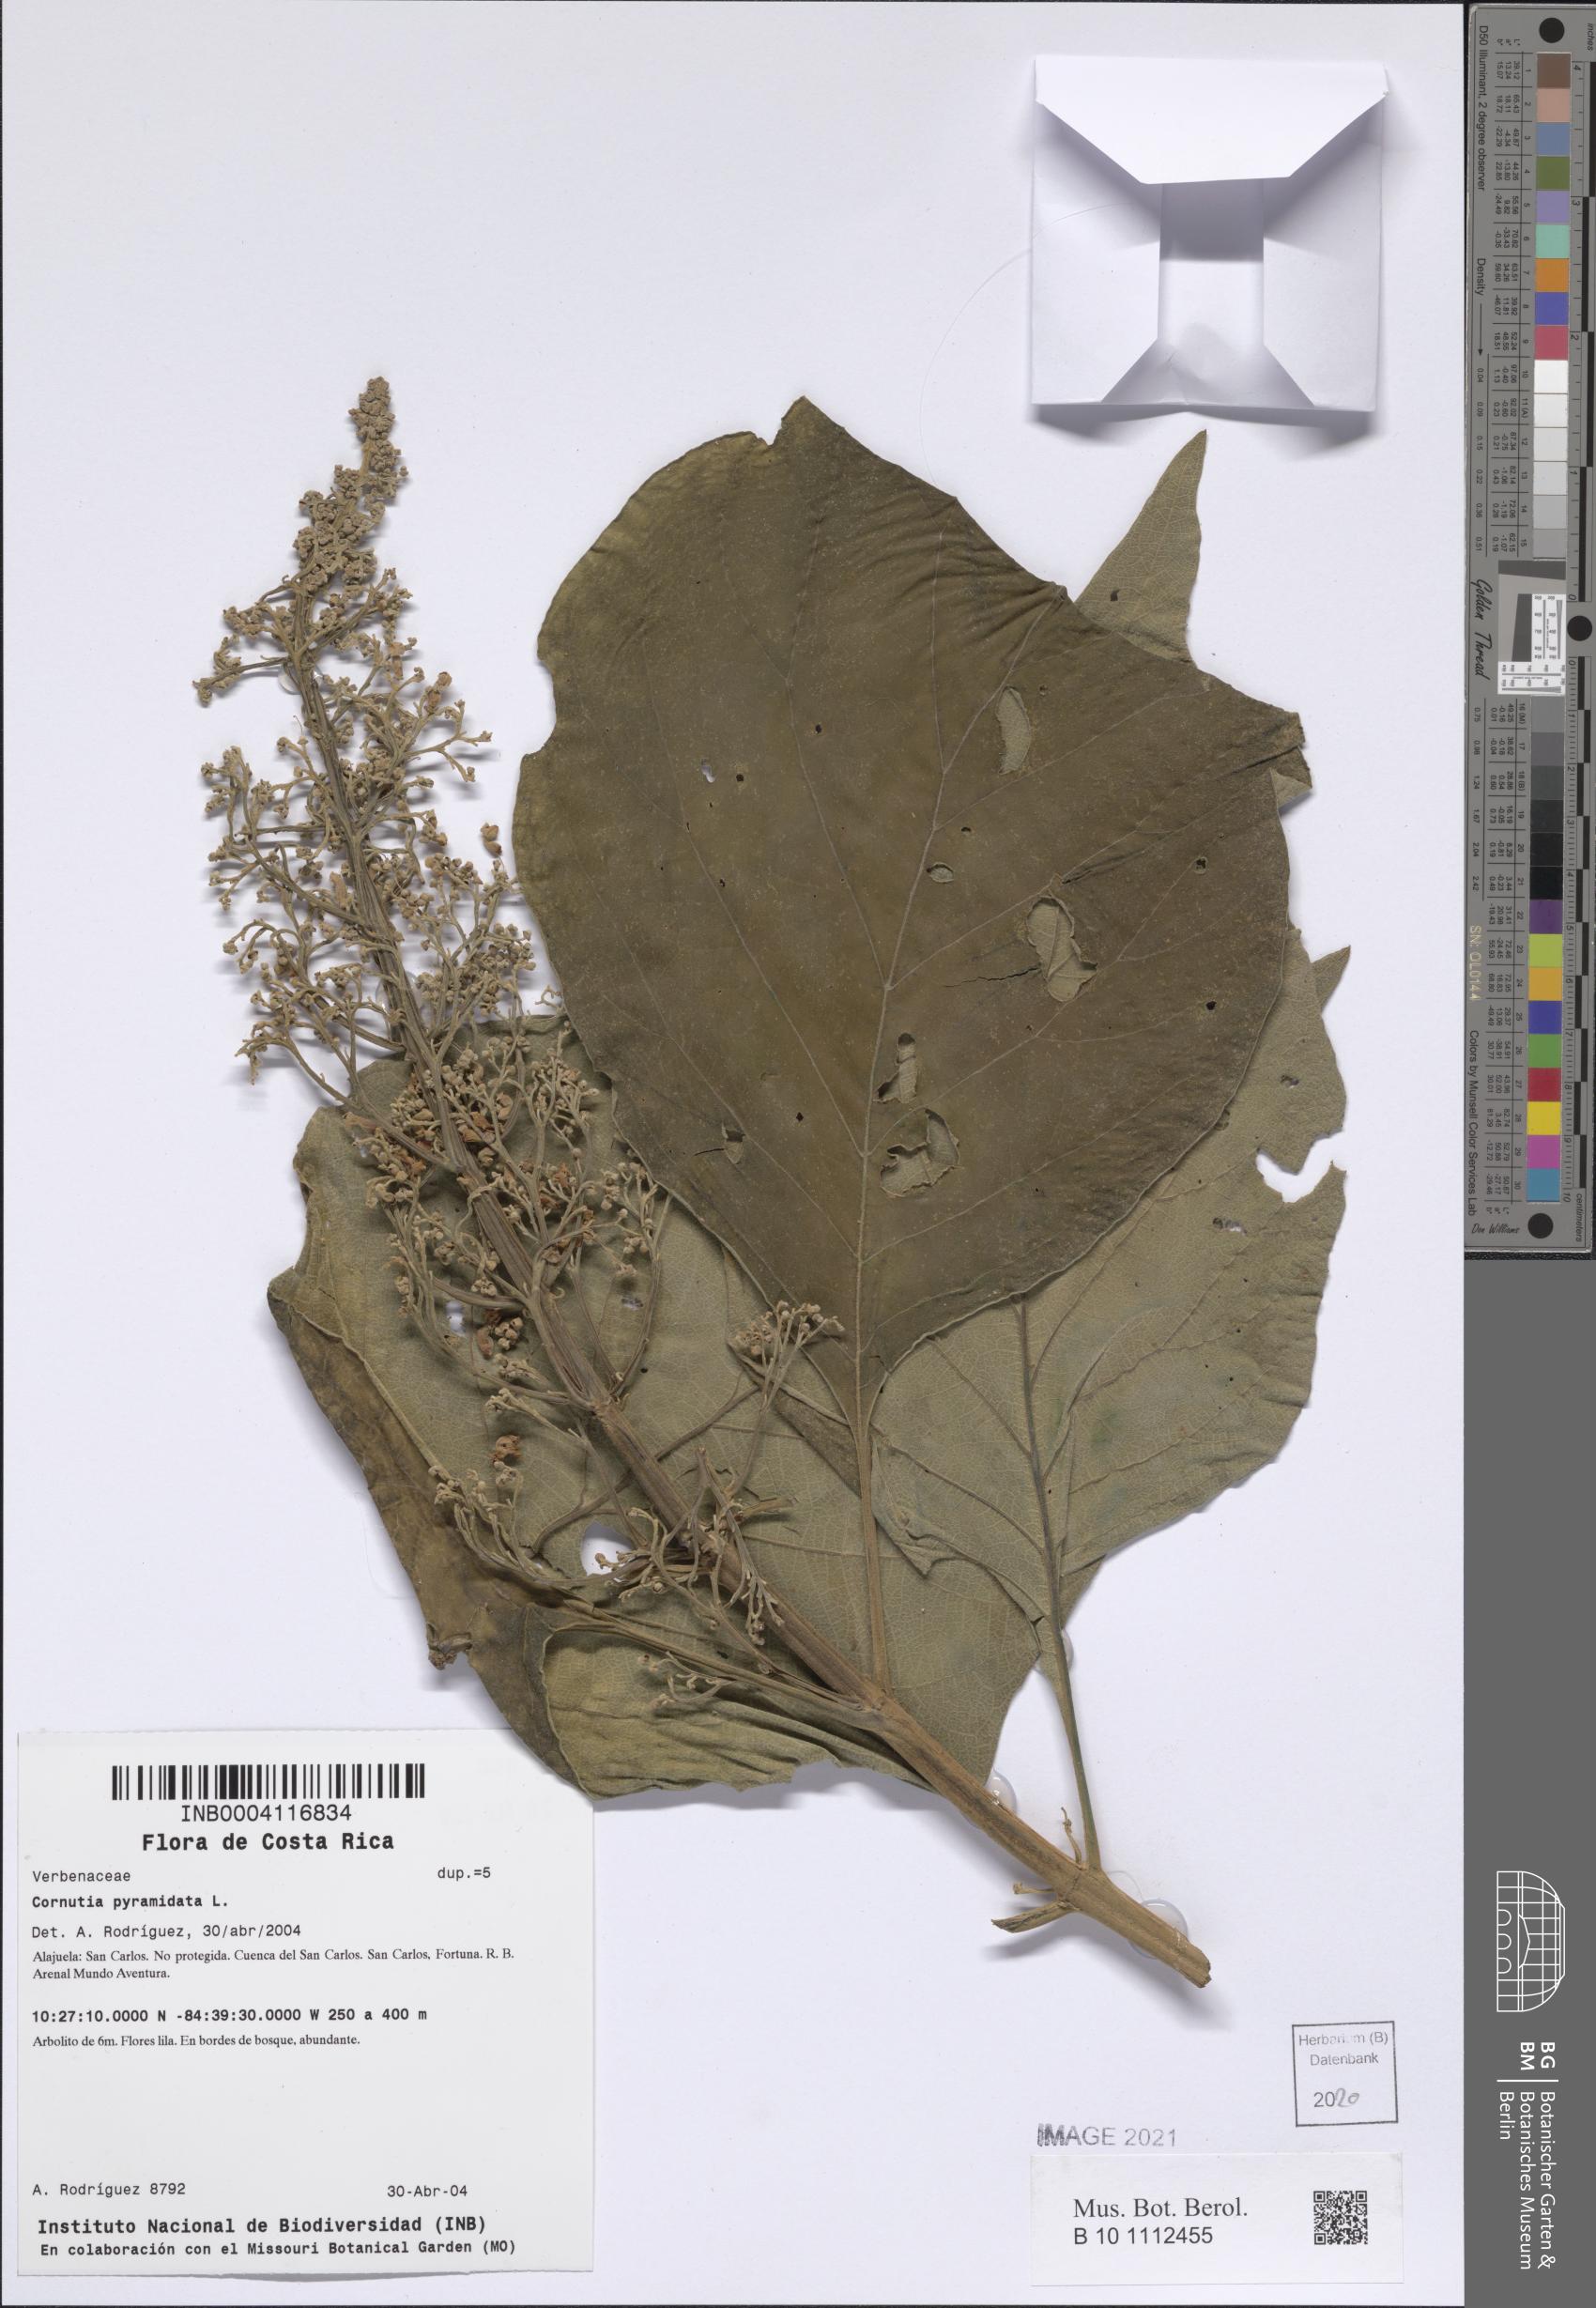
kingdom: Plantae
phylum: Tracheophyta
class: Magnoliopsida
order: Lamiales
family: Lamiaceae
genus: Cornutia
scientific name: Cornutia pyramidata
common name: Azulejo
